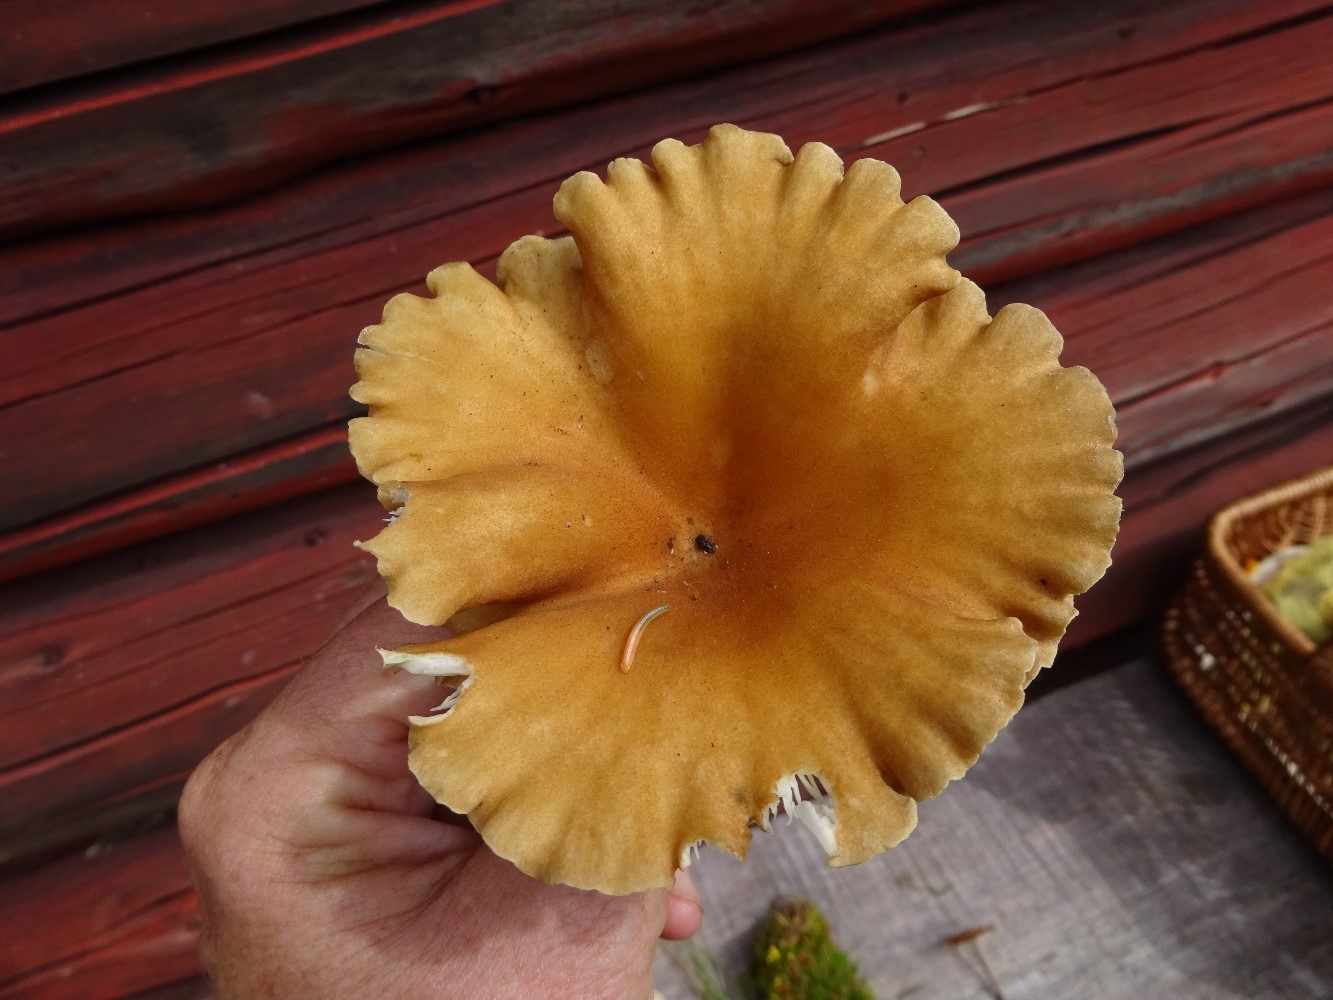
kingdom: Fungi
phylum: Basidiomycota
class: Agaricomycetes
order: Agaricales
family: Tricholomataceae
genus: Clitocybe
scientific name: Clitocybe costata
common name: brunstokket tragthat
